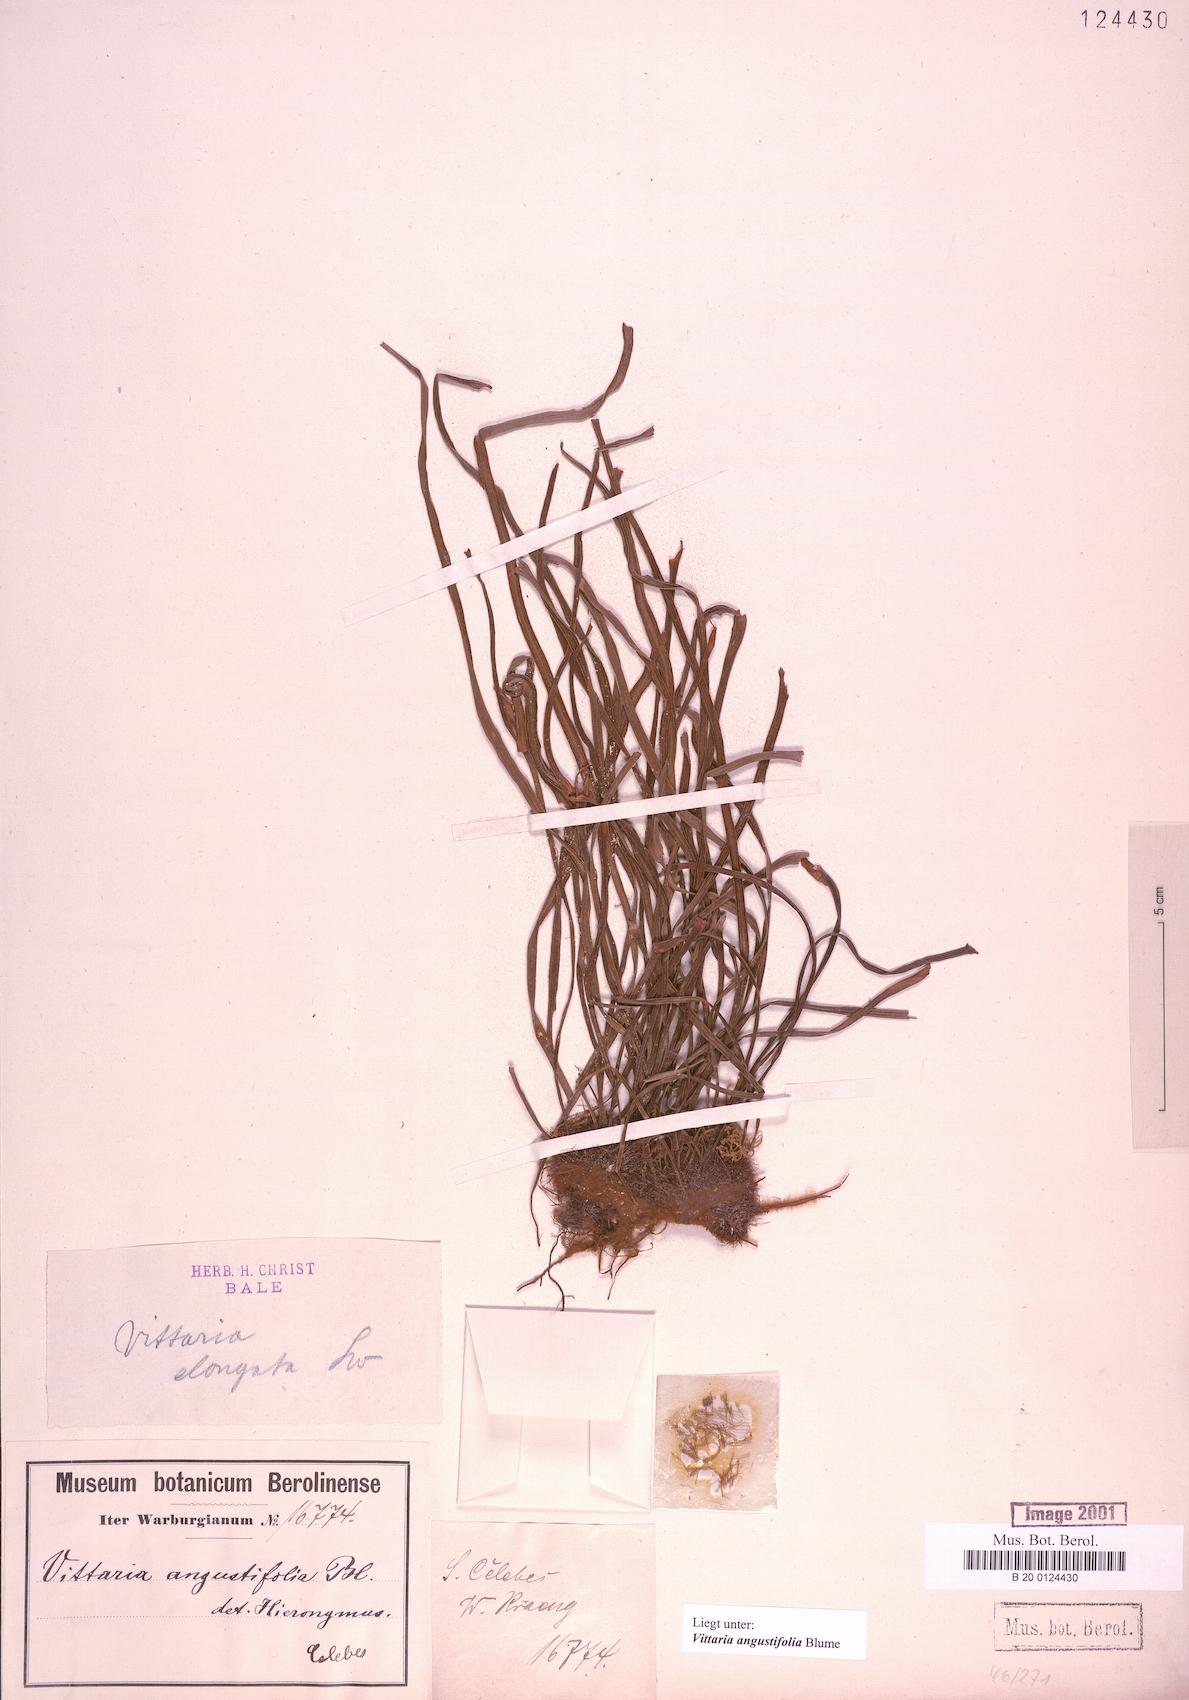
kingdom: Plantae
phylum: Tracheophyta
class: Polypodiopsida
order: Polypodiales
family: Pteridaceae
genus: Ananthacorus
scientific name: Ananthacorus angustifolius
